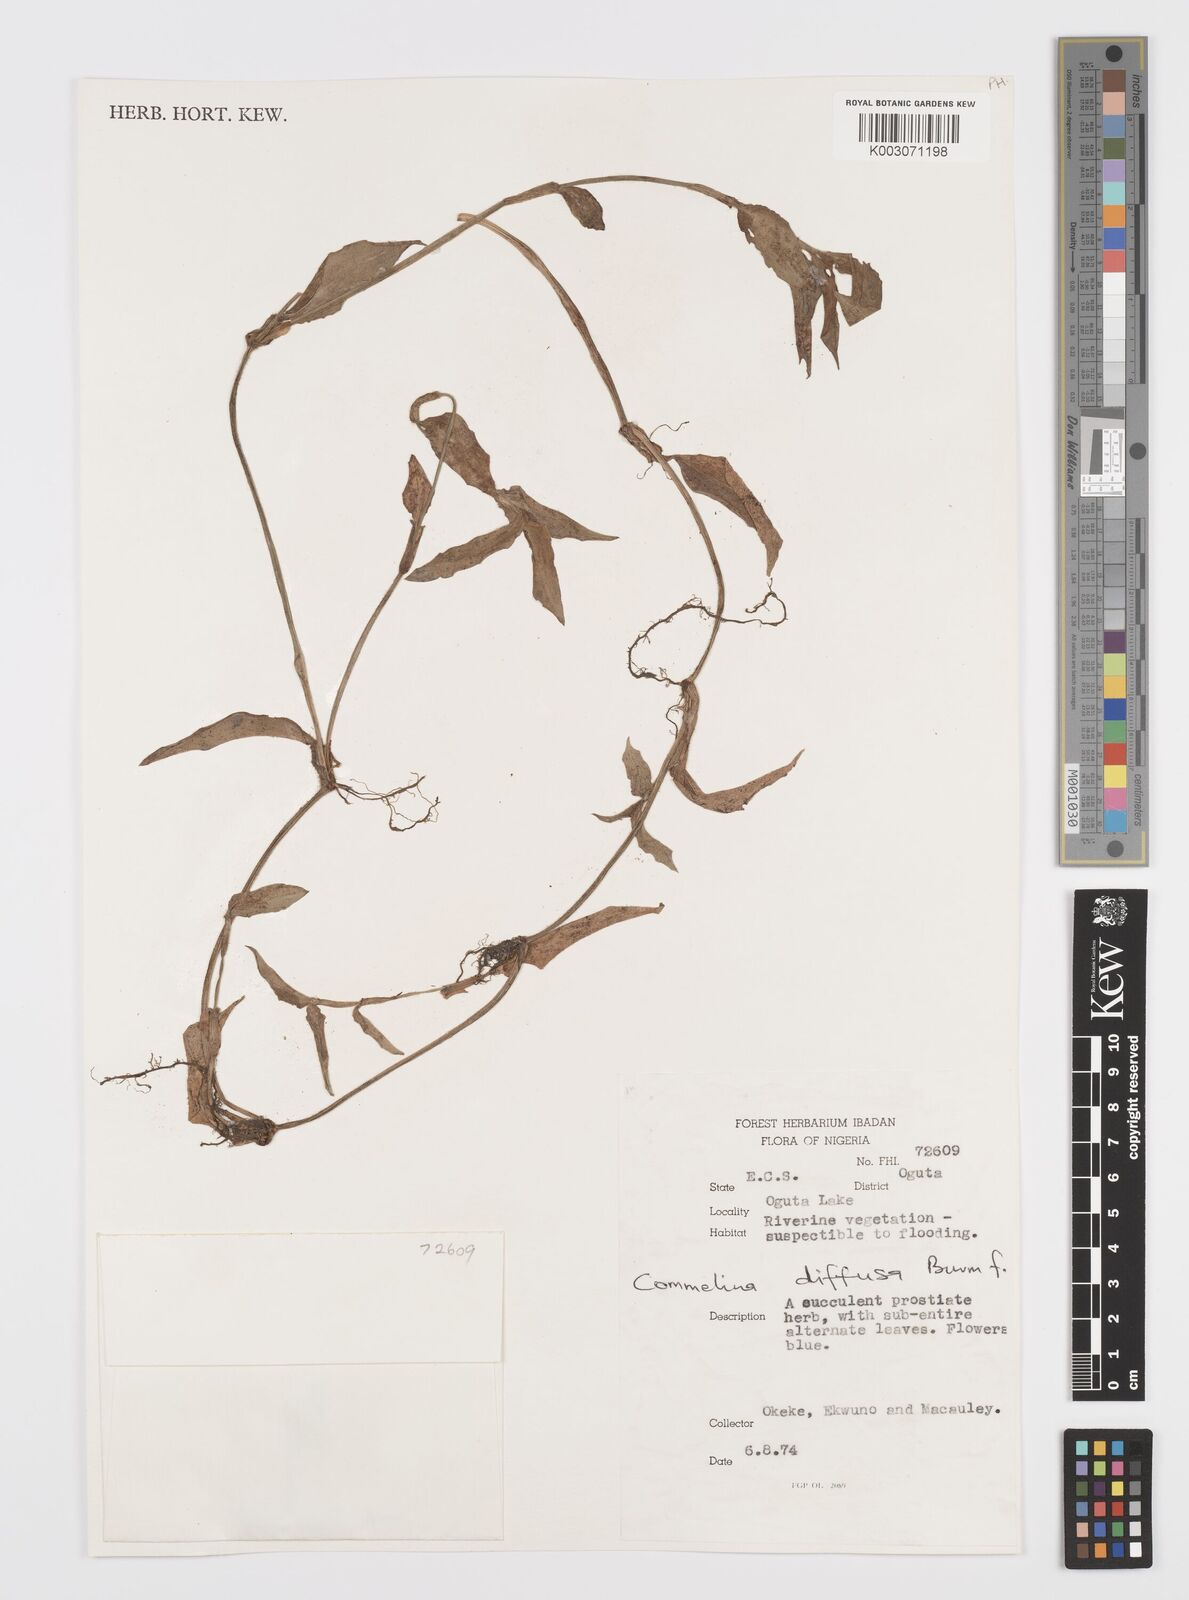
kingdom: Plantae
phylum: Tracheophyta
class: Liliopsida
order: Commelinales
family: Commelinaceae
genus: Commelina
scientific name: Commelina diffusa
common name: Climbing dayflower
